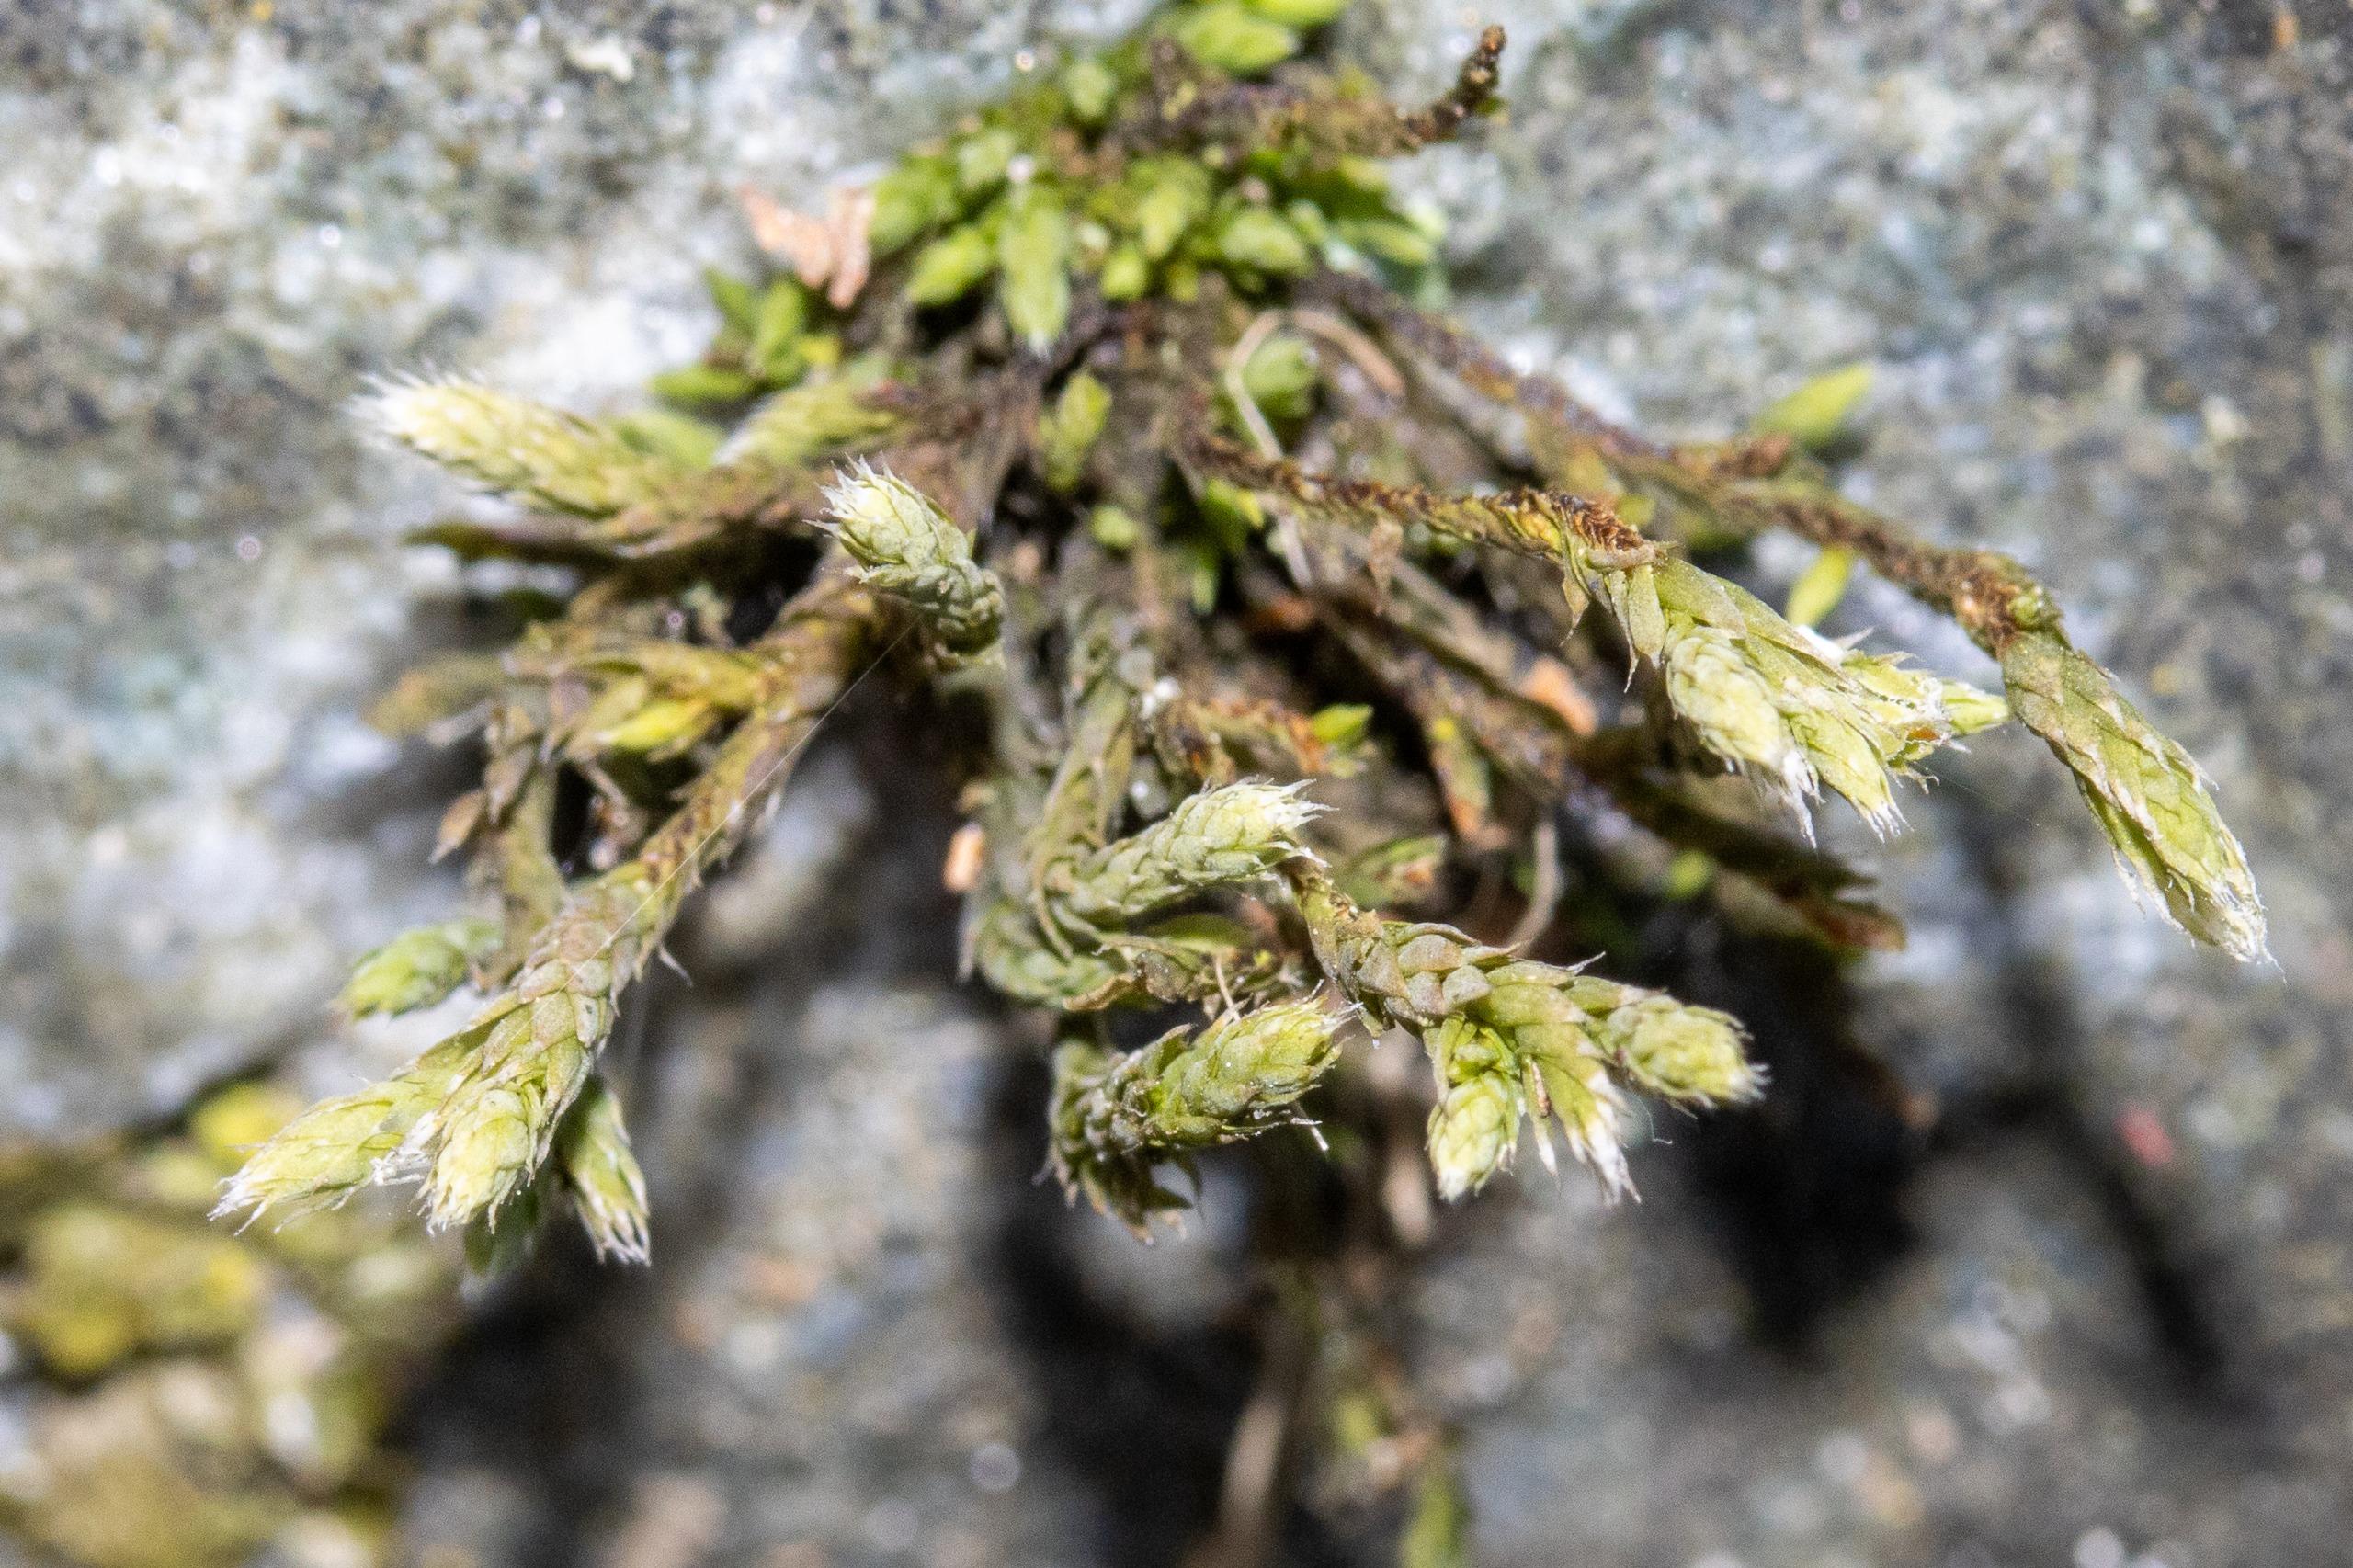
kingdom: Plantae
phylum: Bryophyta
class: Bryopsida
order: Hedwigiales
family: Hedwigiaceae
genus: Hedwigia
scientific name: Hedwigia
